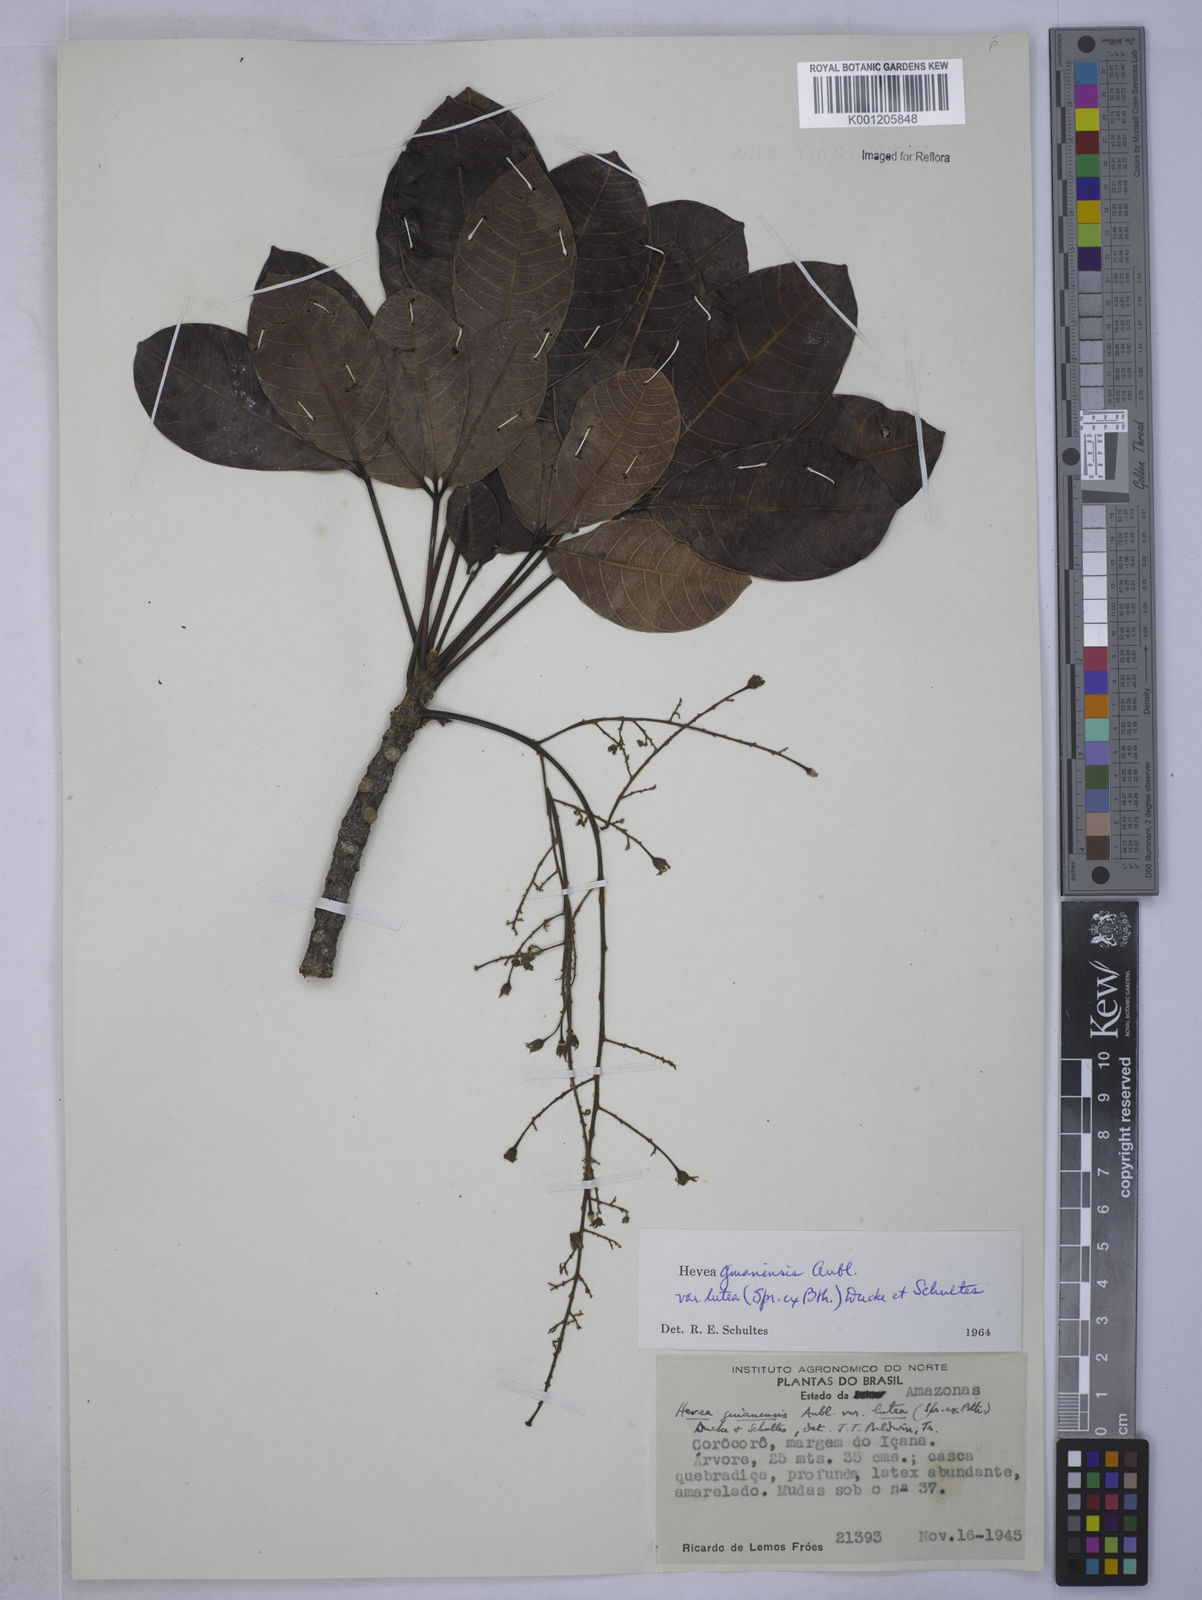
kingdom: Plantae
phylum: Tracheophyta
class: Magnoliopsida
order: Malpighiales
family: Euphorbiaceae
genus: Hevea
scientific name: Hevea guianensis
